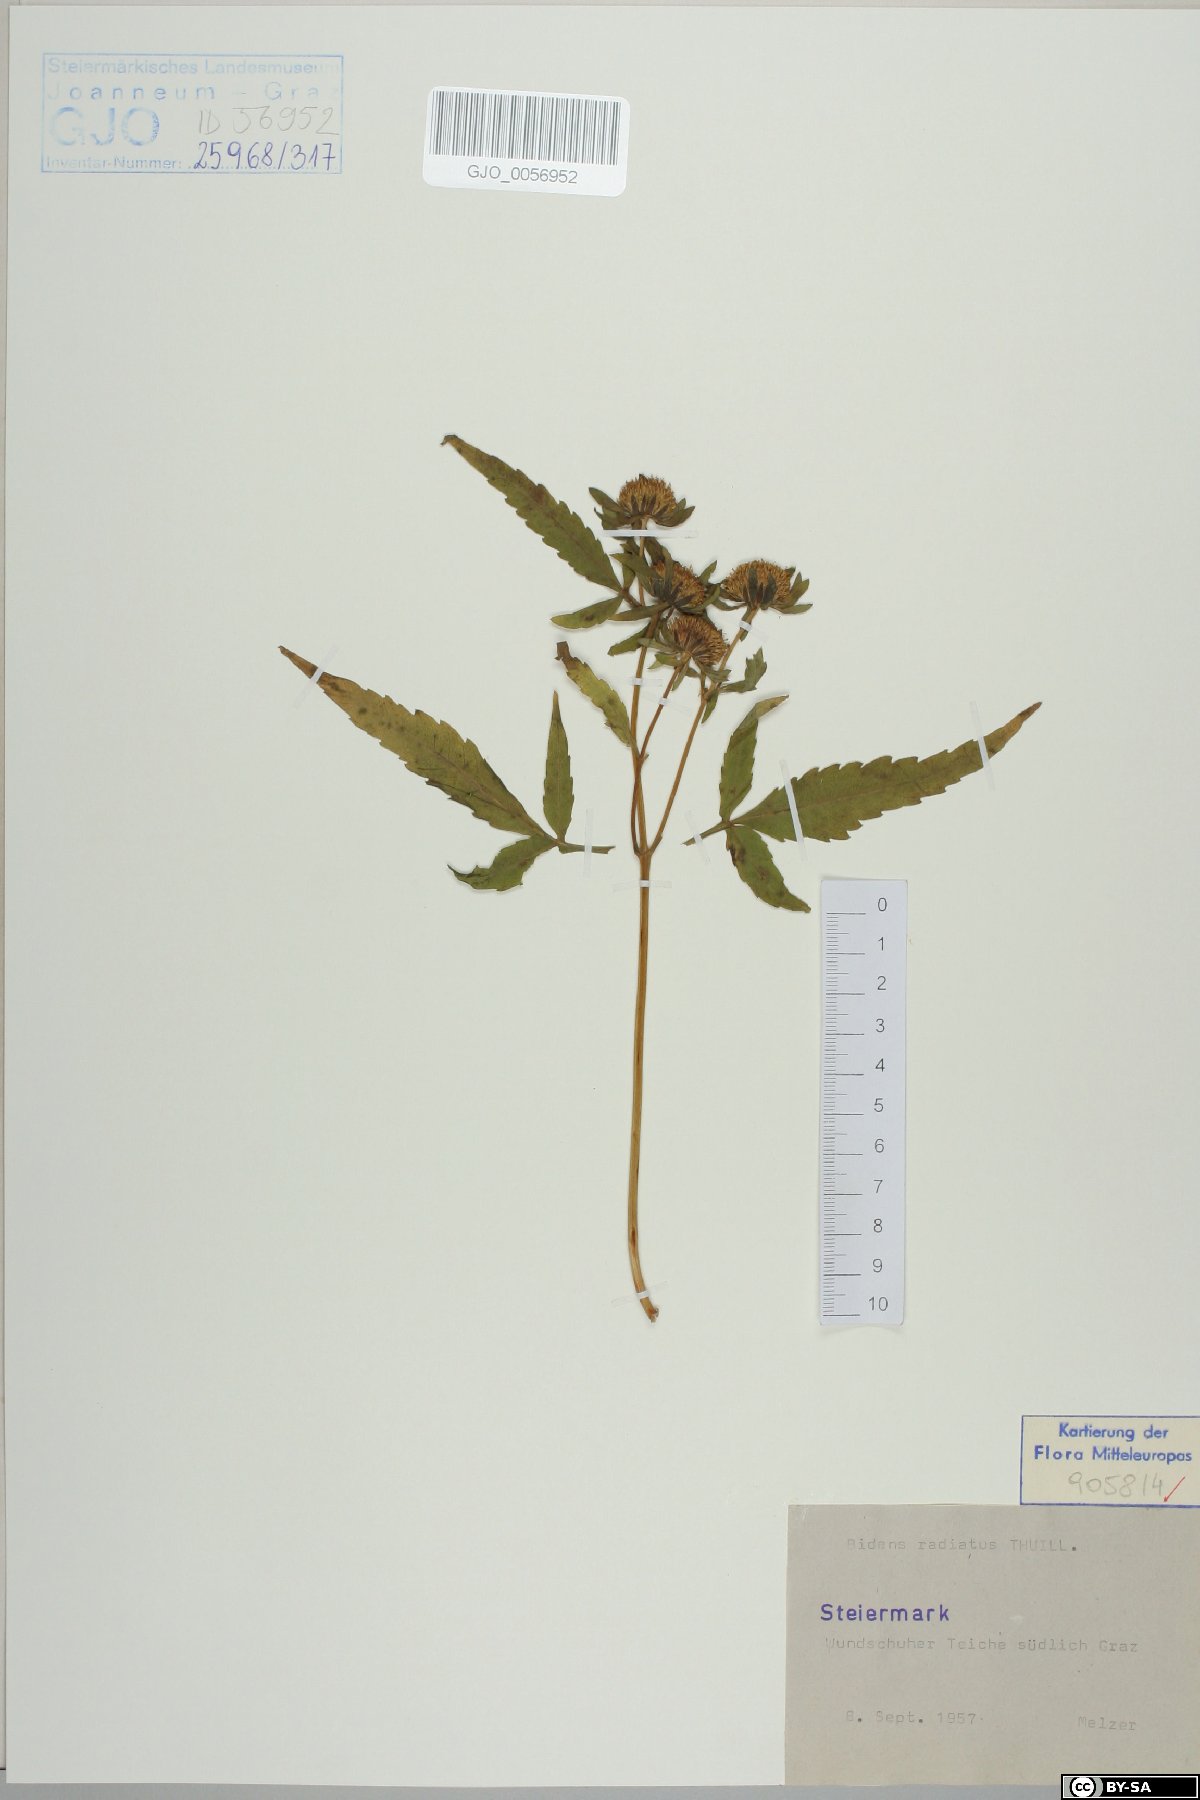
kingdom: Plantae
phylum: Tracheophyta
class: Magnoliopsida
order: Asterales
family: Asteraceae
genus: Bidens
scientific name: Bidens radiata
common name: Radiating bur-marigold
